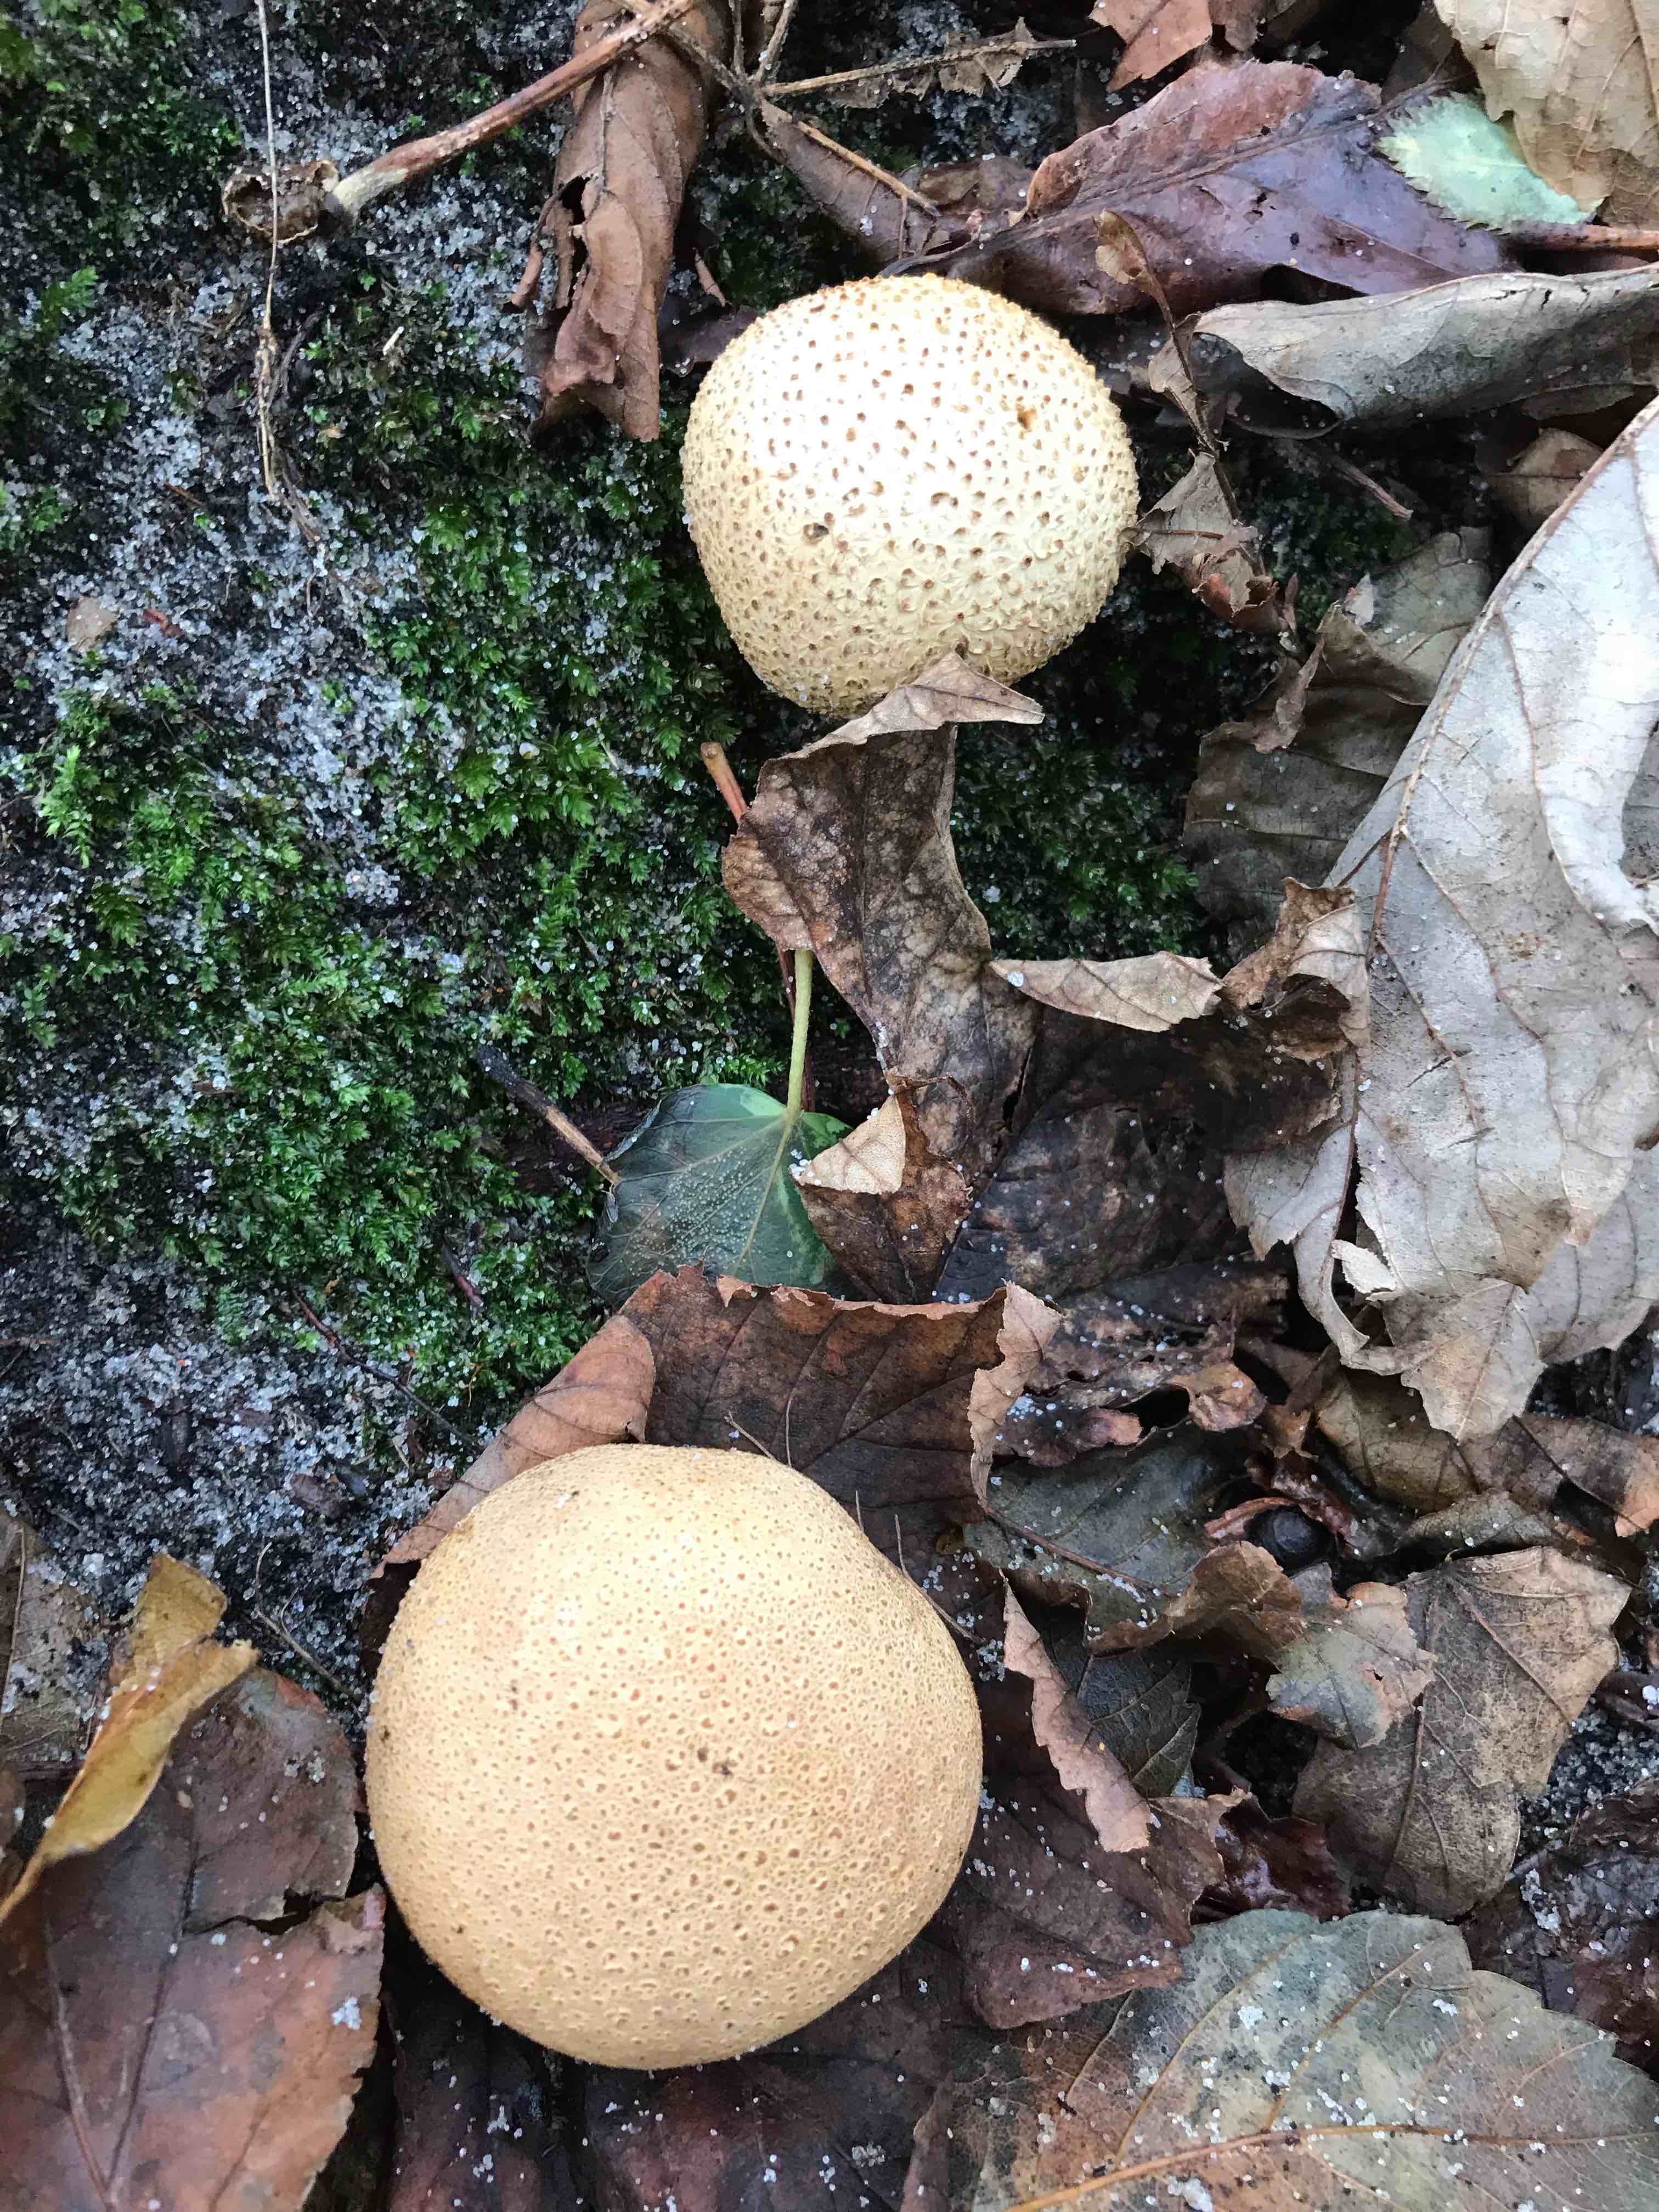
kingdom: Fungi
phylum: Basidiomycota
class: Agaricomycetes
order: Boletales
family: Sclerodermataceae
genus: Scleroderma
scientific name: Scleroderma citrinum
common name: almindelig bruskbold
